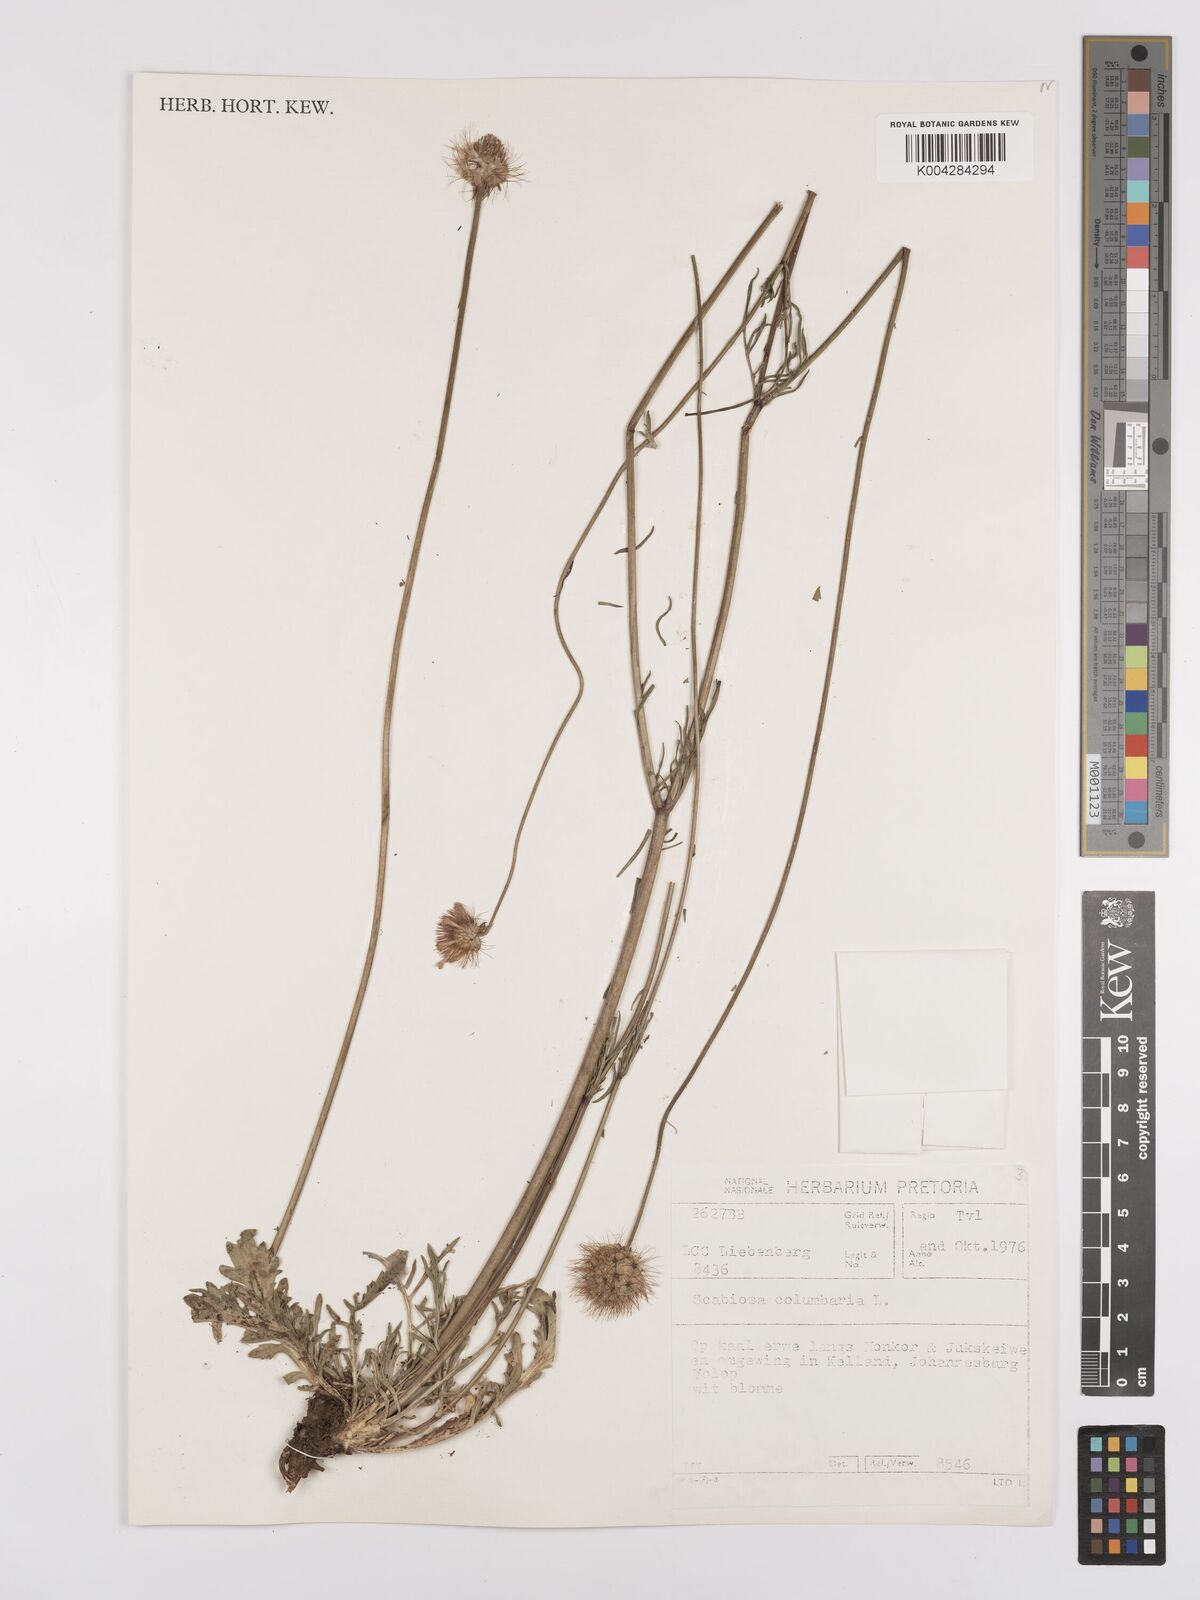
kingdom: Plantae
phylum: Tracheophyta
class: Magnoliopsida
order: Dipsacales
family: Caprifoliaceae
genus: Scabiosa
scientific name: Scabiosa columbaria
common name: Small scabious
